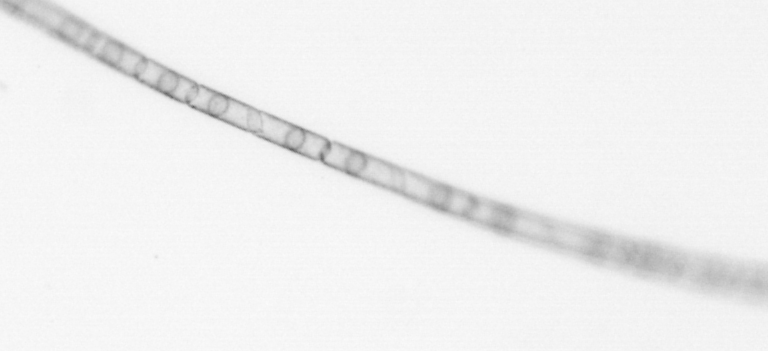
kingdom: Chromista
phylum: Ochrophyta
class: Bacillariophyceae
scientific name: Bacillariophyceae
